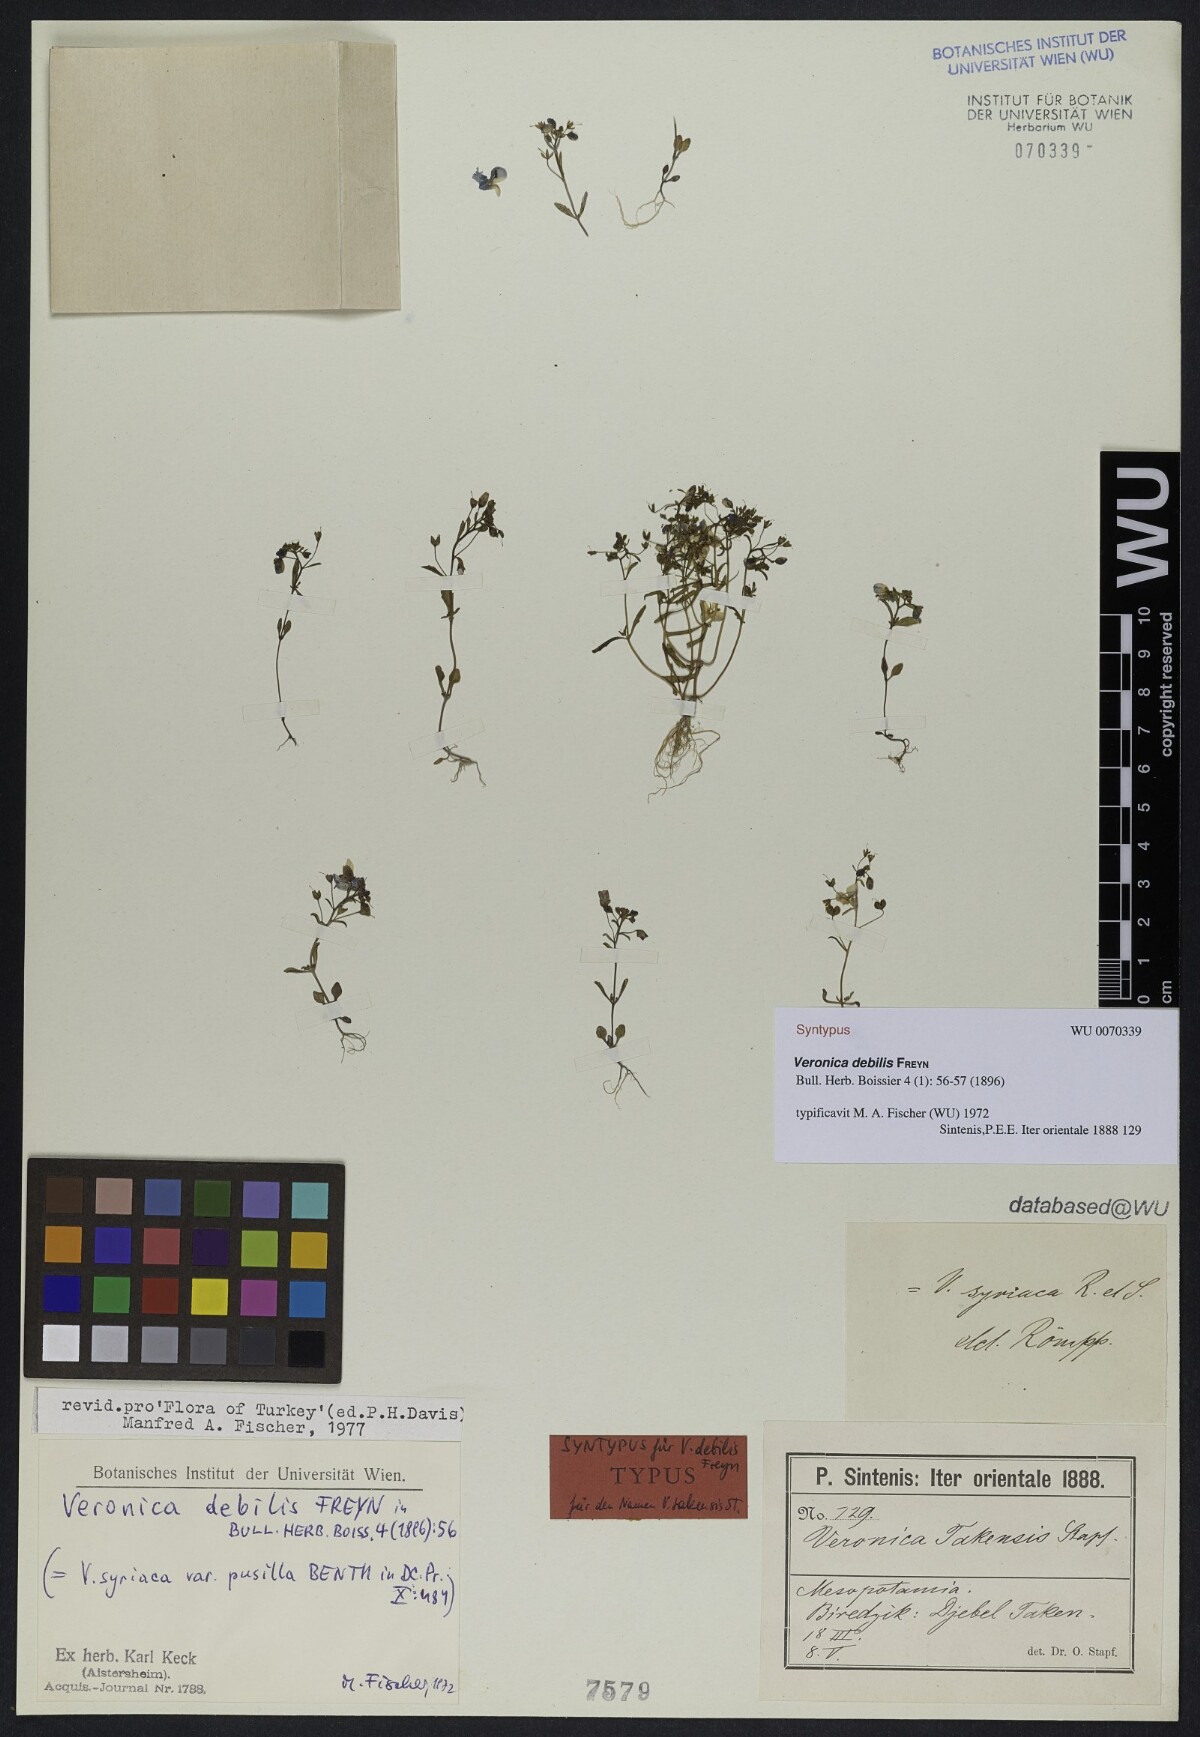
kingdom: Plantae
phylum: Tracheophyta
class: Magnoliopsida
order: Lamiales
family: Plantaginaceae
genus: Veronica
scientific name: Veronica debilis
